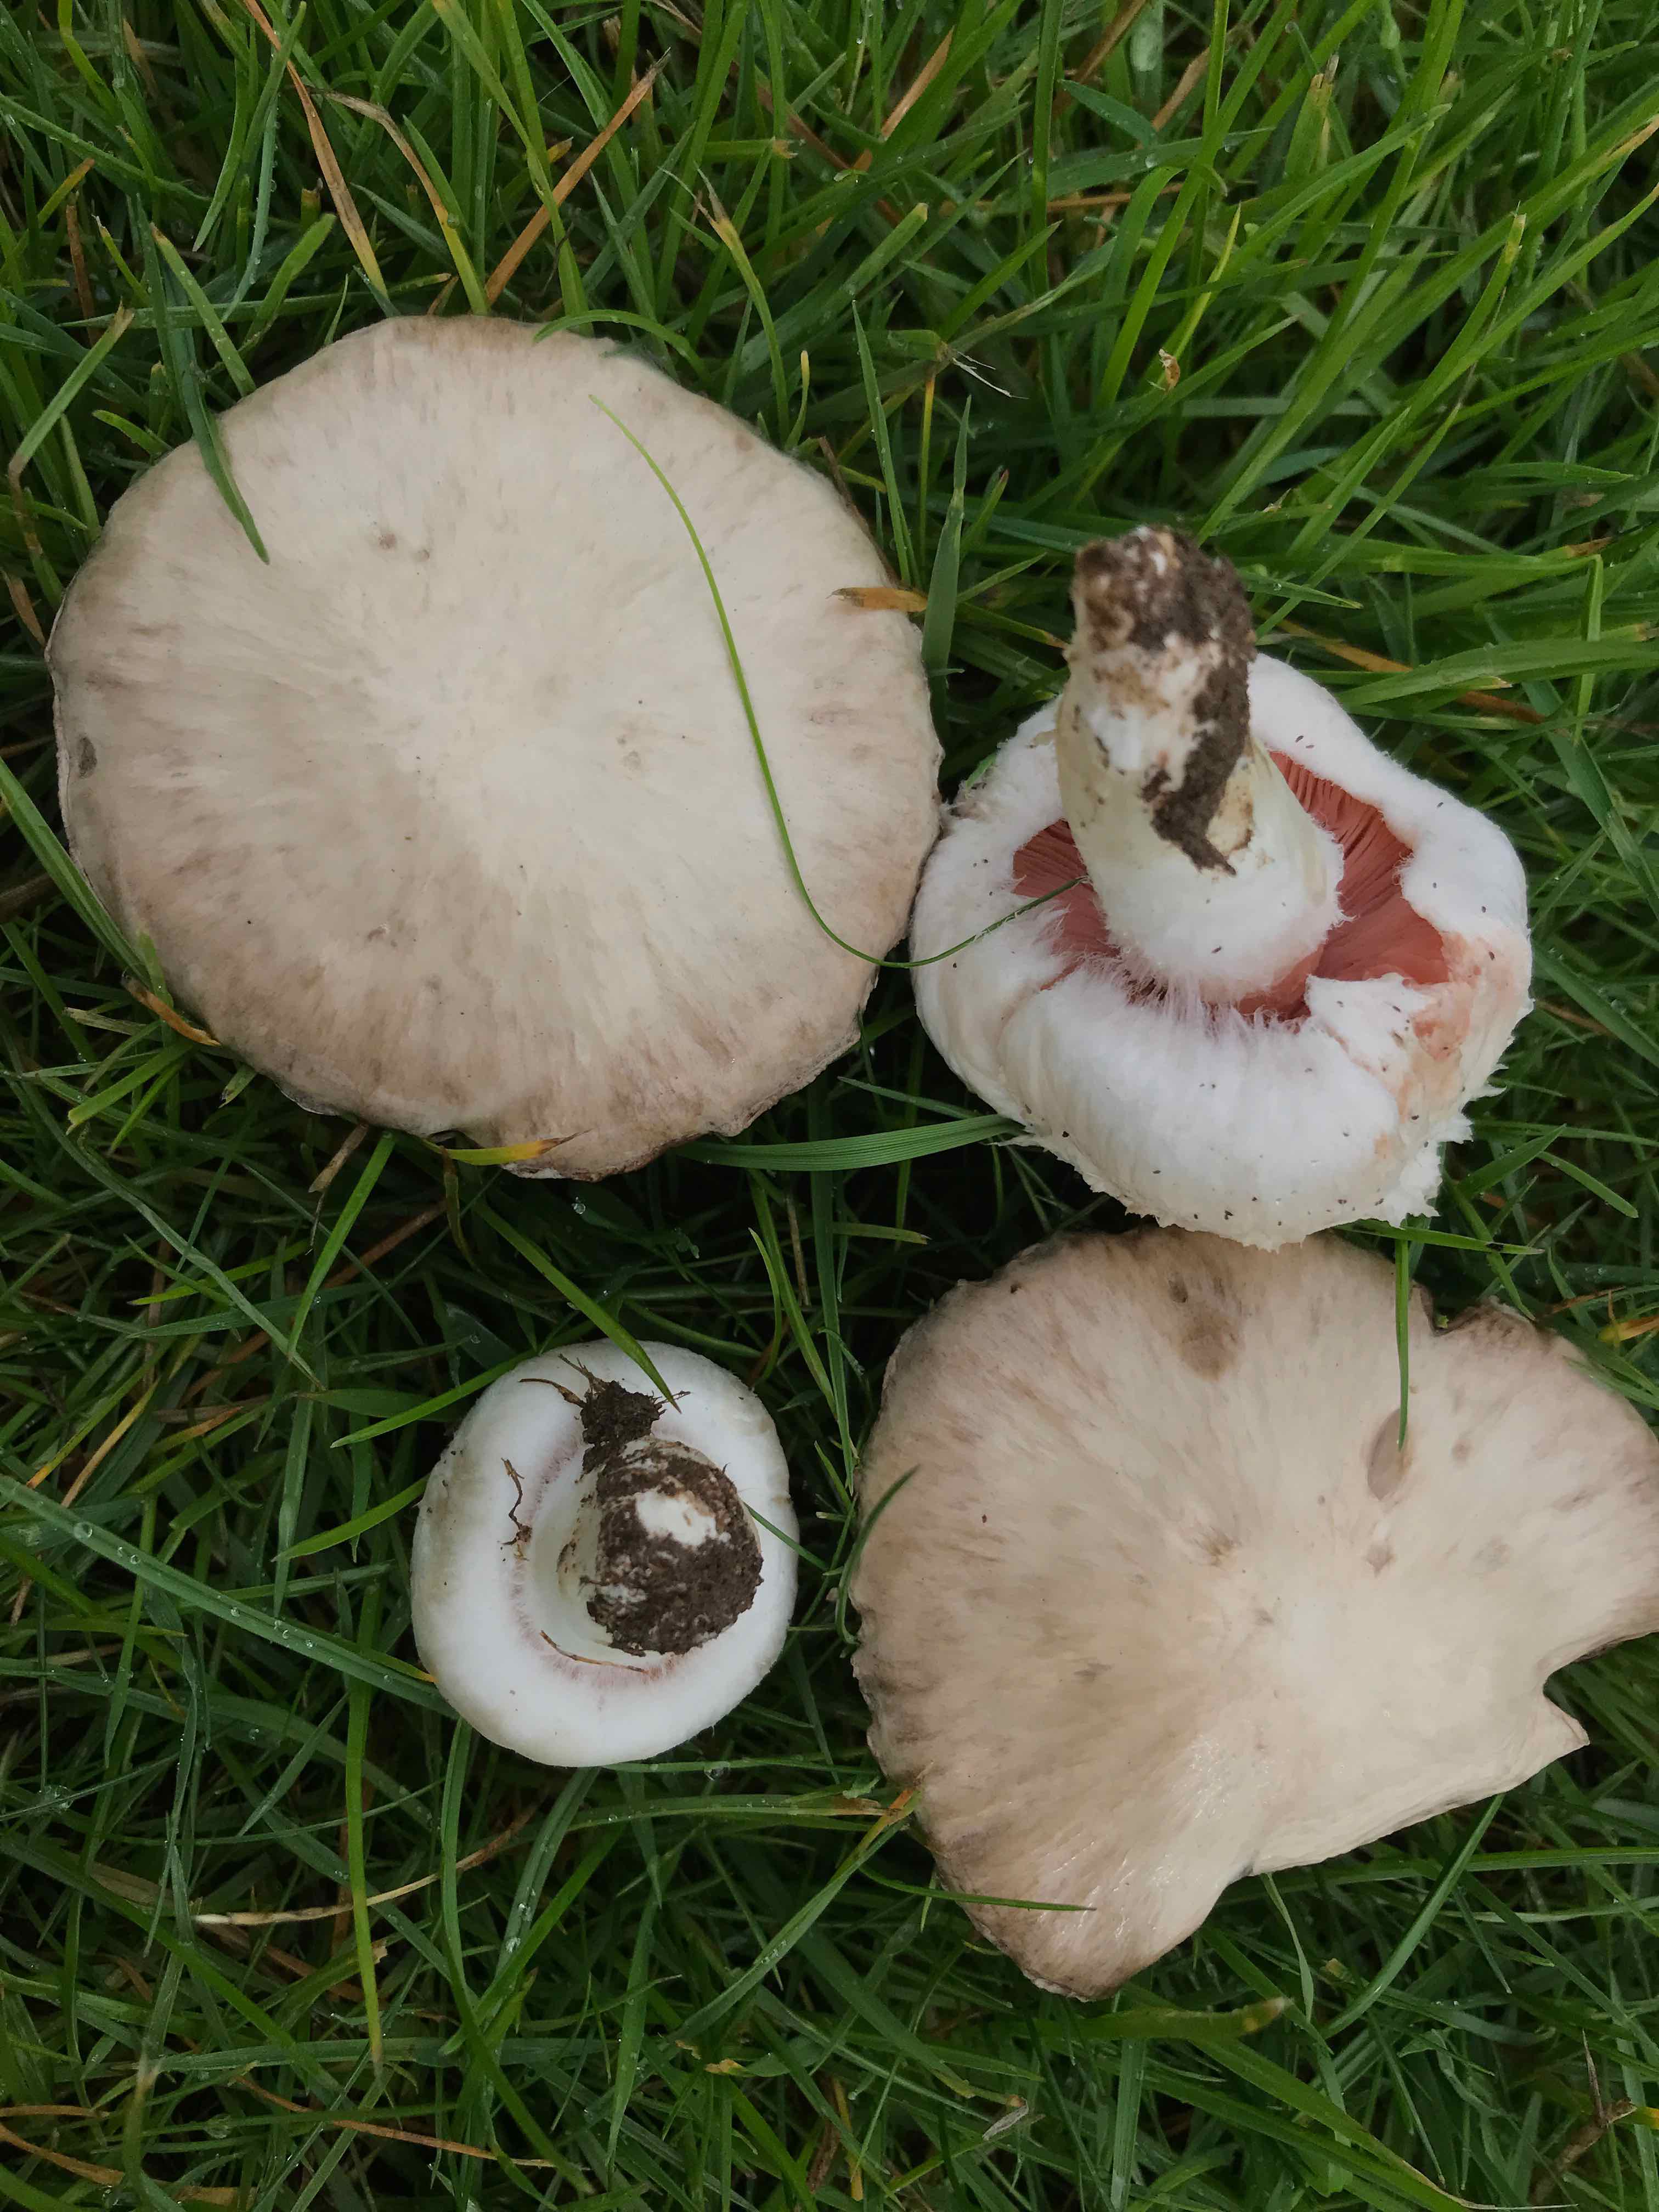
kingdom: Fungi
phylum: Basidiomycota
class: Agaricomycetes
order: Agaricales
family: Agaricaceae
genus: Agaricus
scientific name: Agaricus campestris
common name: mark-champignon
